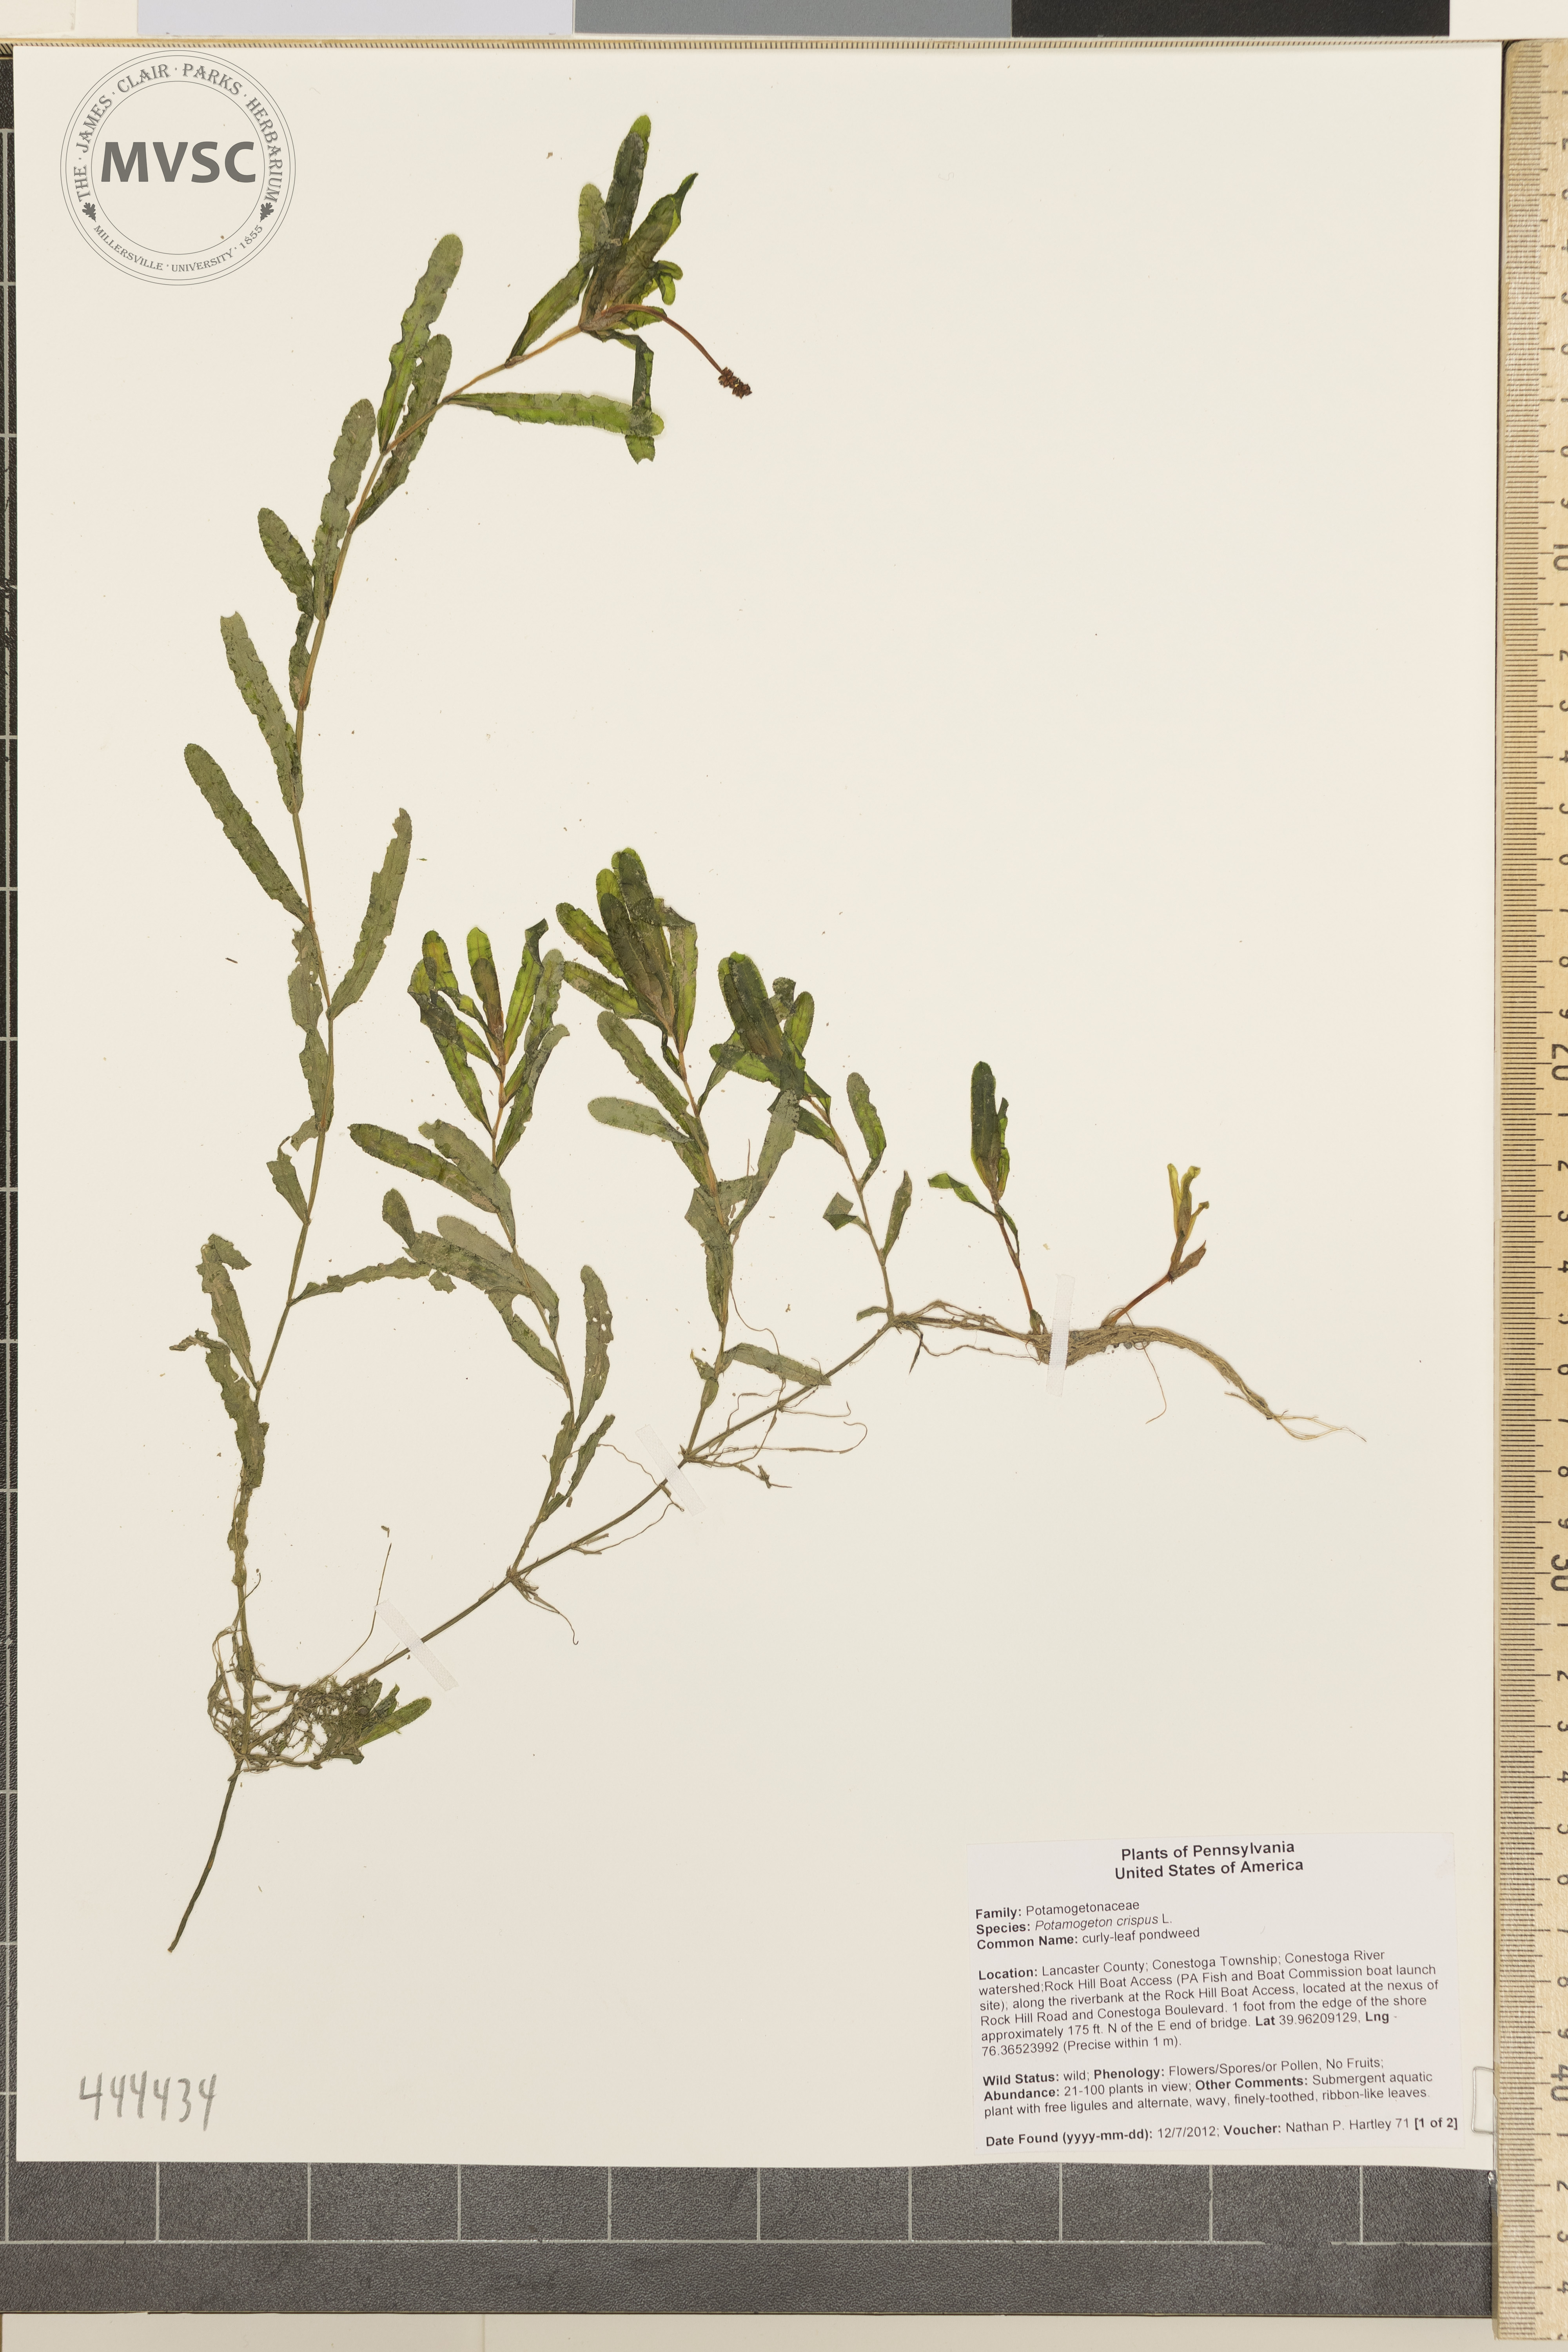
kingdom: Plantae
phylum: Tracheophyta
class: Liliopsida
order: Alismatales
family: Potamogetonaceae
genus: Potamogeton
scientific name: Potamogeton crispus
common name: Curly pondweed
